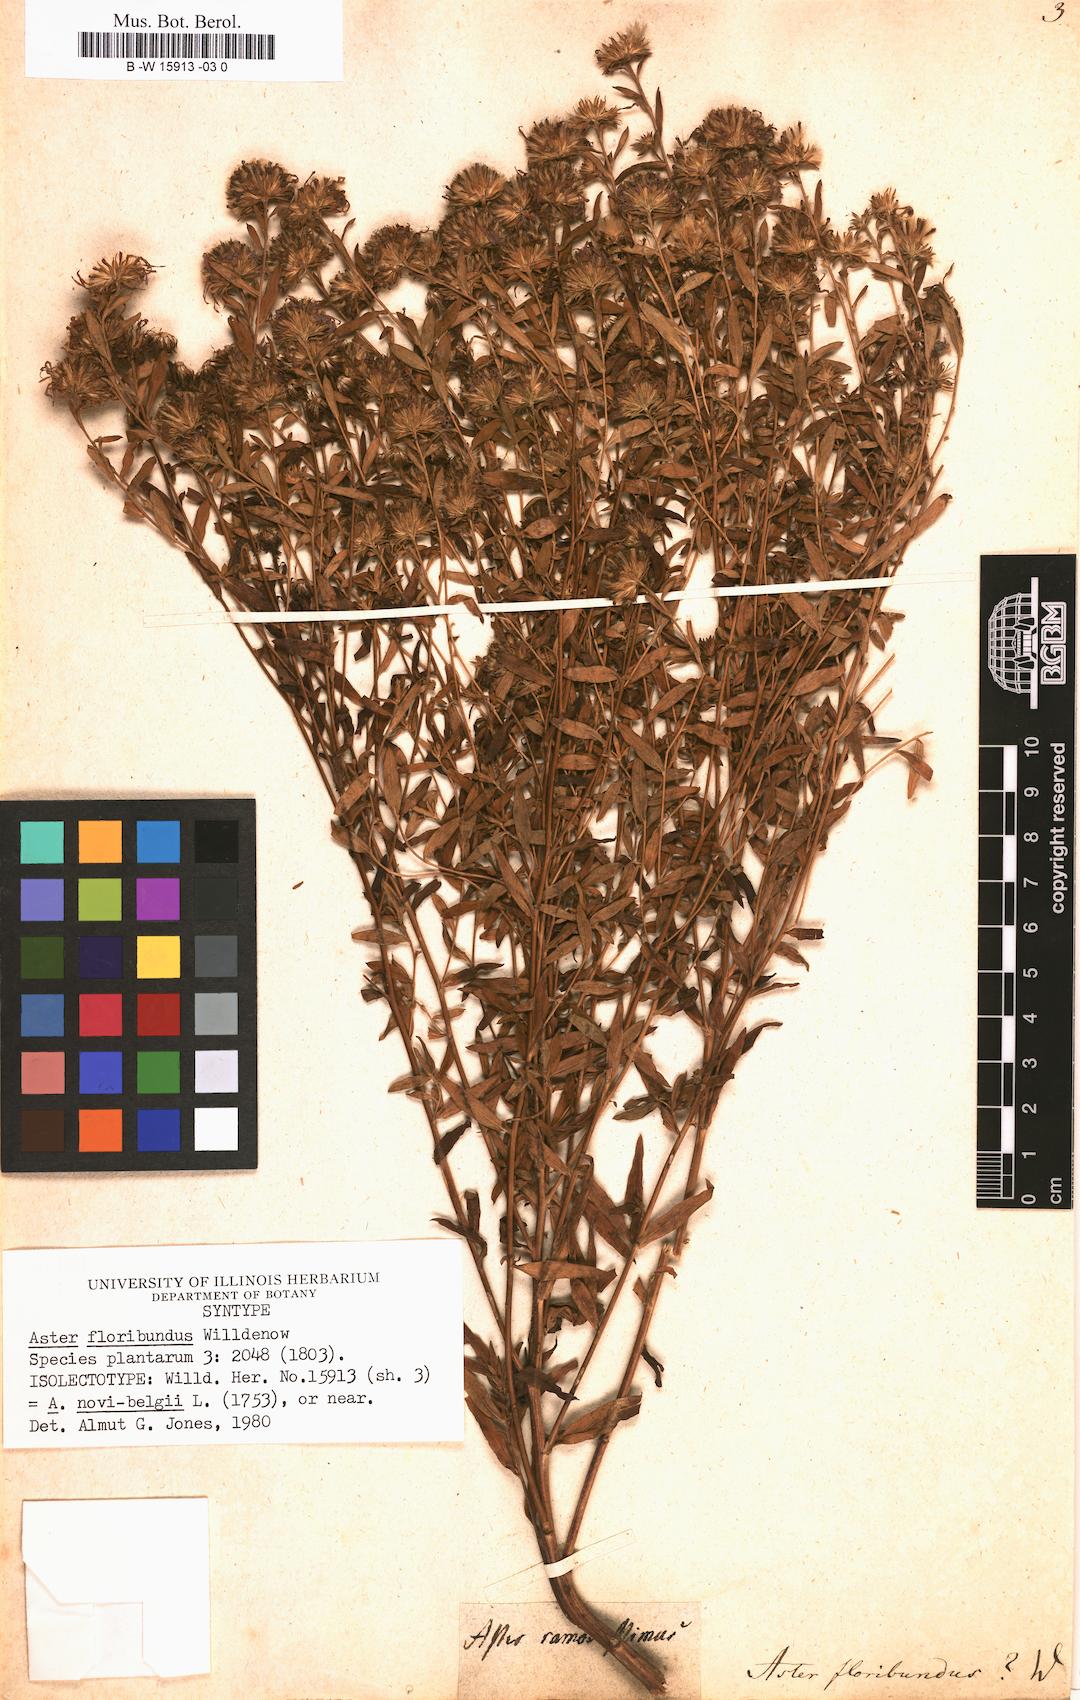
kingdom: Plantae
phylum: Tracheophyta
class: Magnoliopsida
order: Asterales
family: Asteraceae
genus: Aster
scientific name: Aster floribundus
